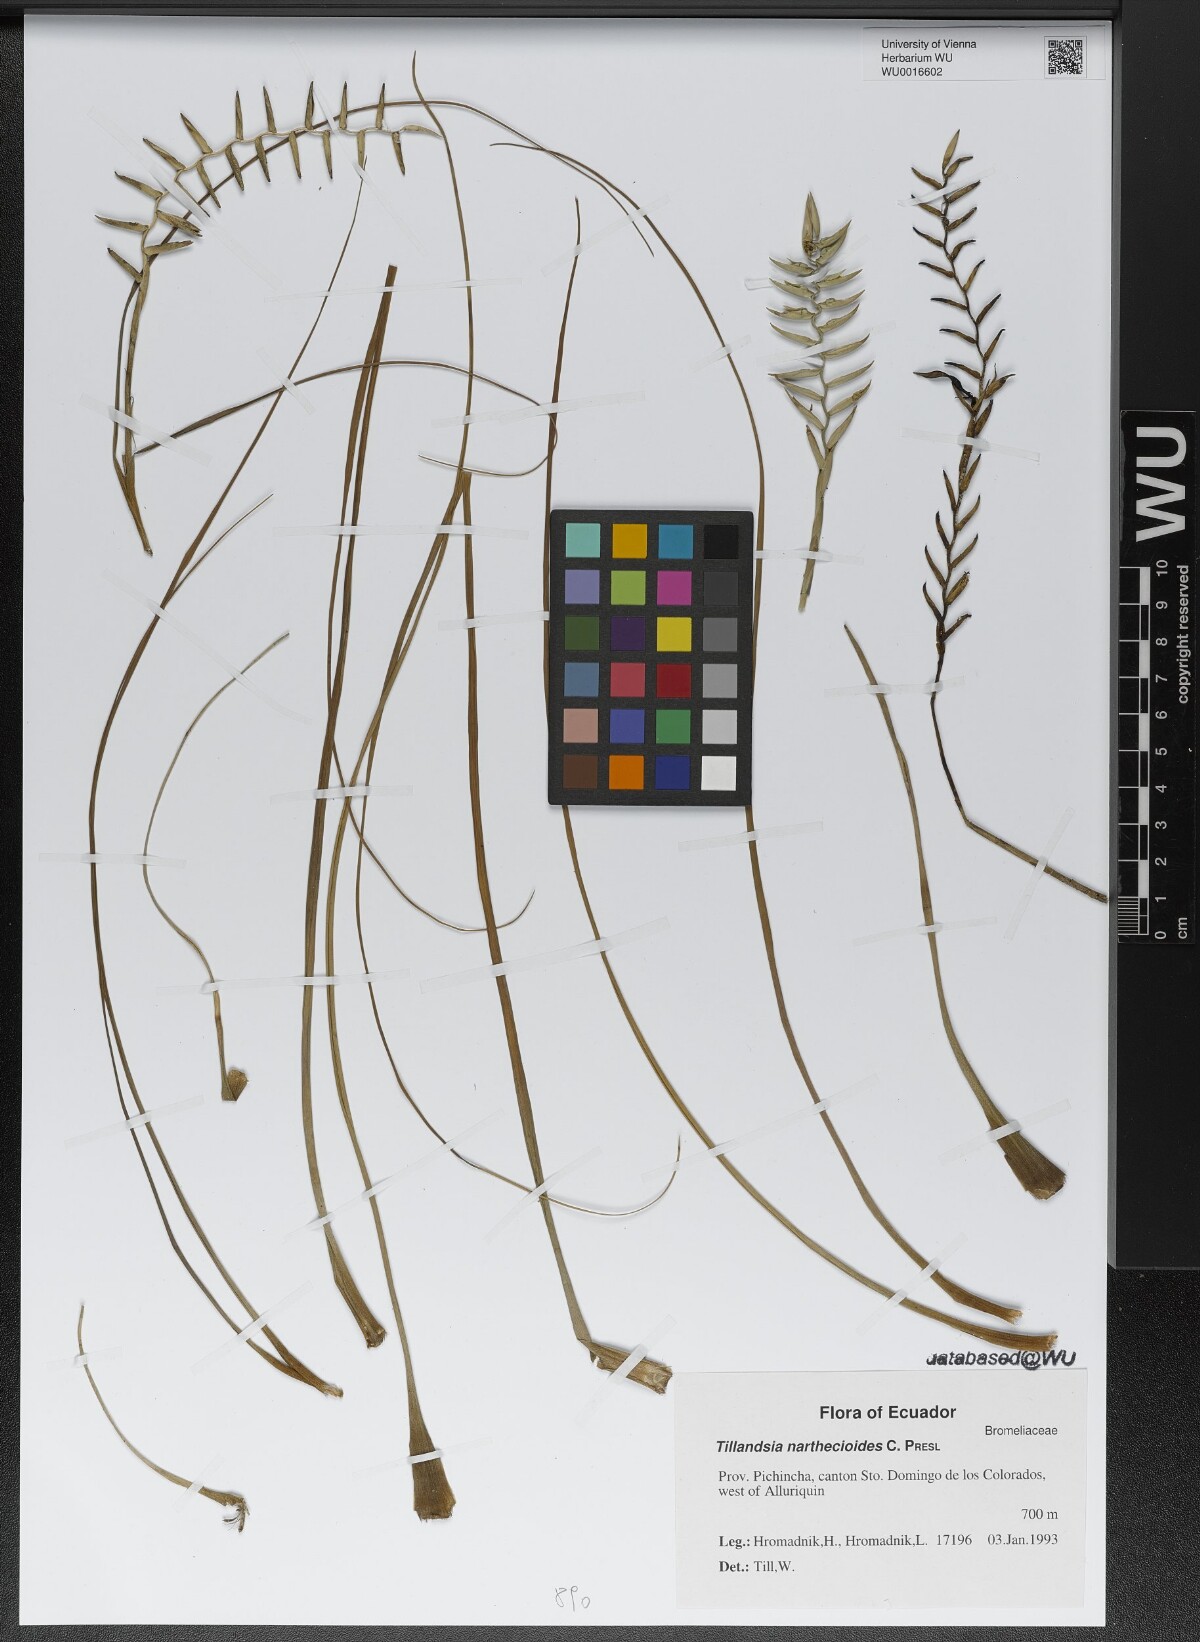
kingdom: Plantae
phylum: Tracheophyta
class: Liliopsida
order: Poales
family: Bromeliaceae
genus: Lemeltonia
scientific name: Lemeltonia narthecioides
